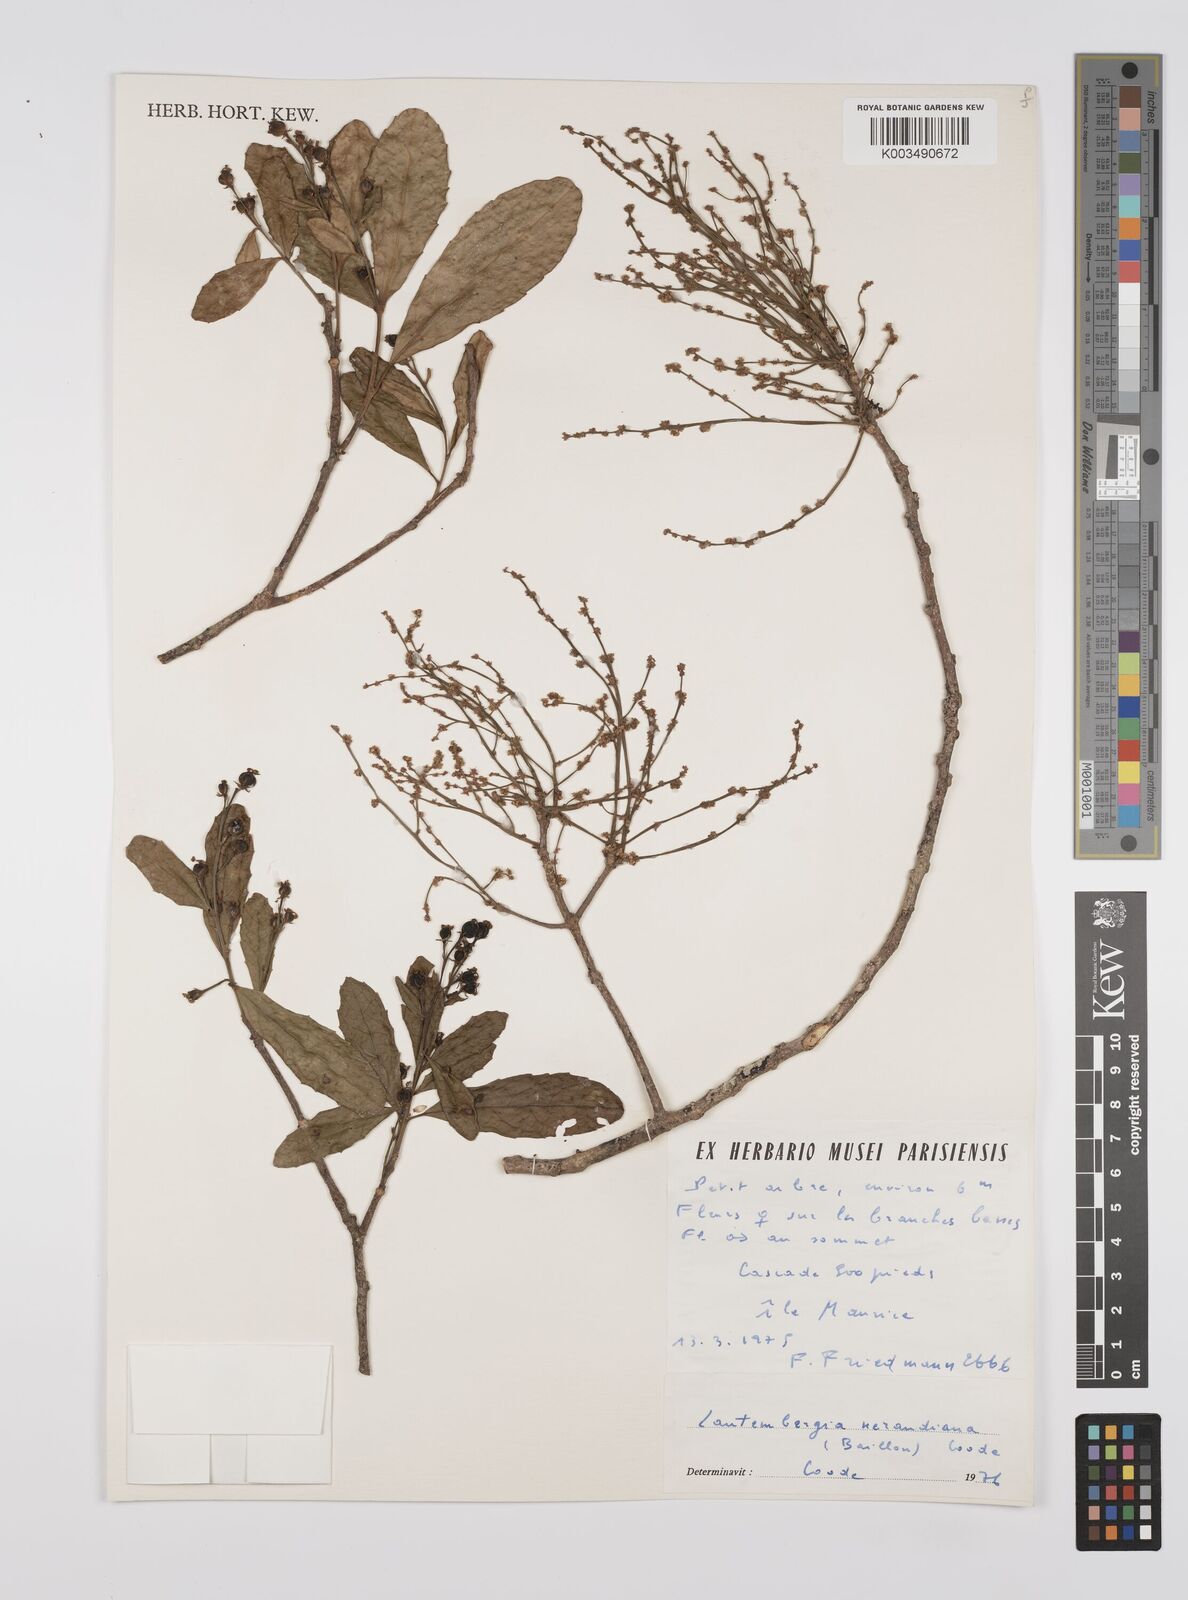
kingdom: Plantae
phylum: Tracheophyta
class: Magnoliopsida
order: Malpighiales
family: Euphorbiaceae
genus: Orfilea
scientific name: Orfilea neraudiana
